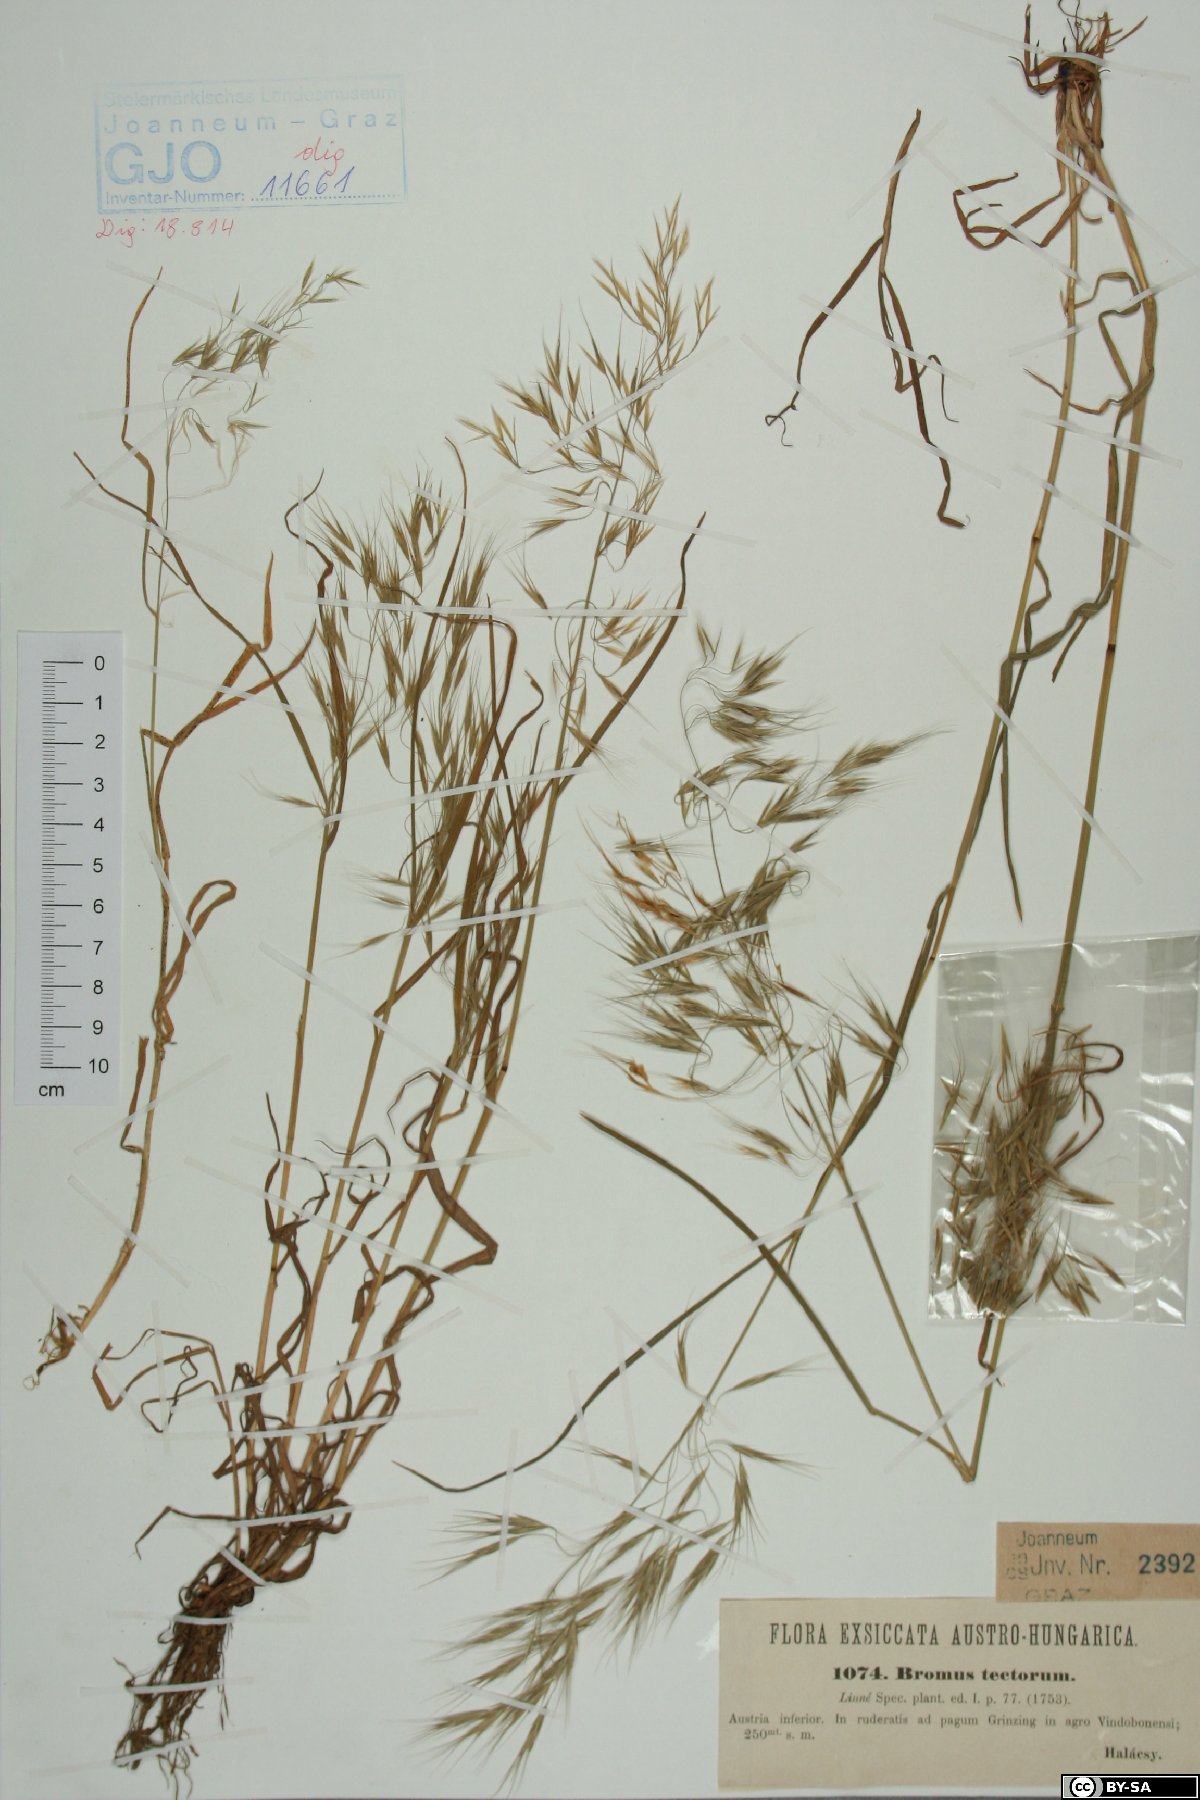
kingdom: Plantae
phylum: Tracheophyta
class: Liliopsida
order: Poales
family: Poaceae
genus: Bromus
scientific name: Bromus tectorum
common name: Cheatgrass
